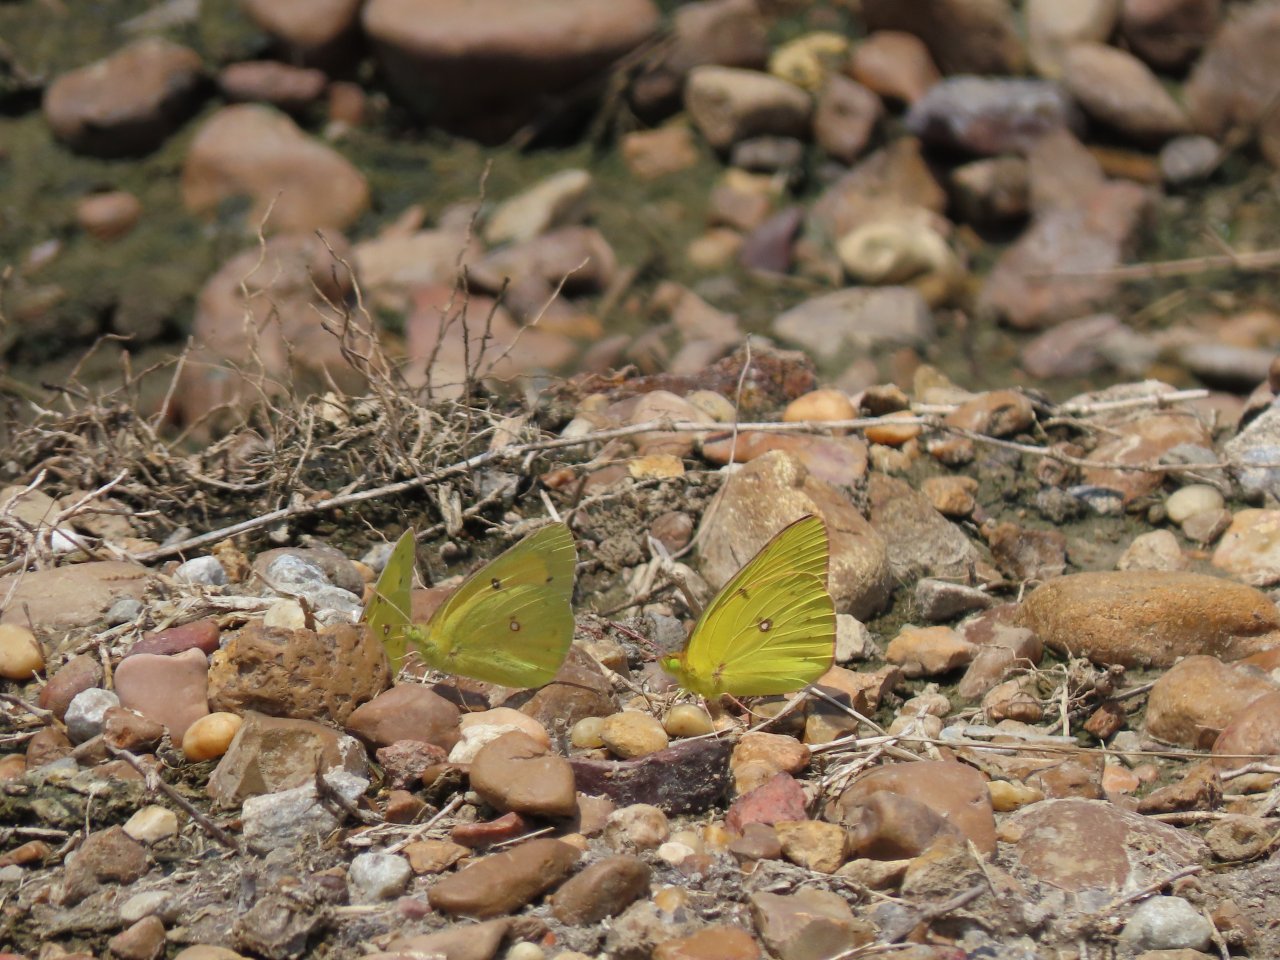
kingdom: Animalia
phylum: Arthropoda
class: Insecta
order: Lepidoptera
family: Pieridae
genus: Colias
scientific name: Colias eurytheme
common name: Orange Sulphur
